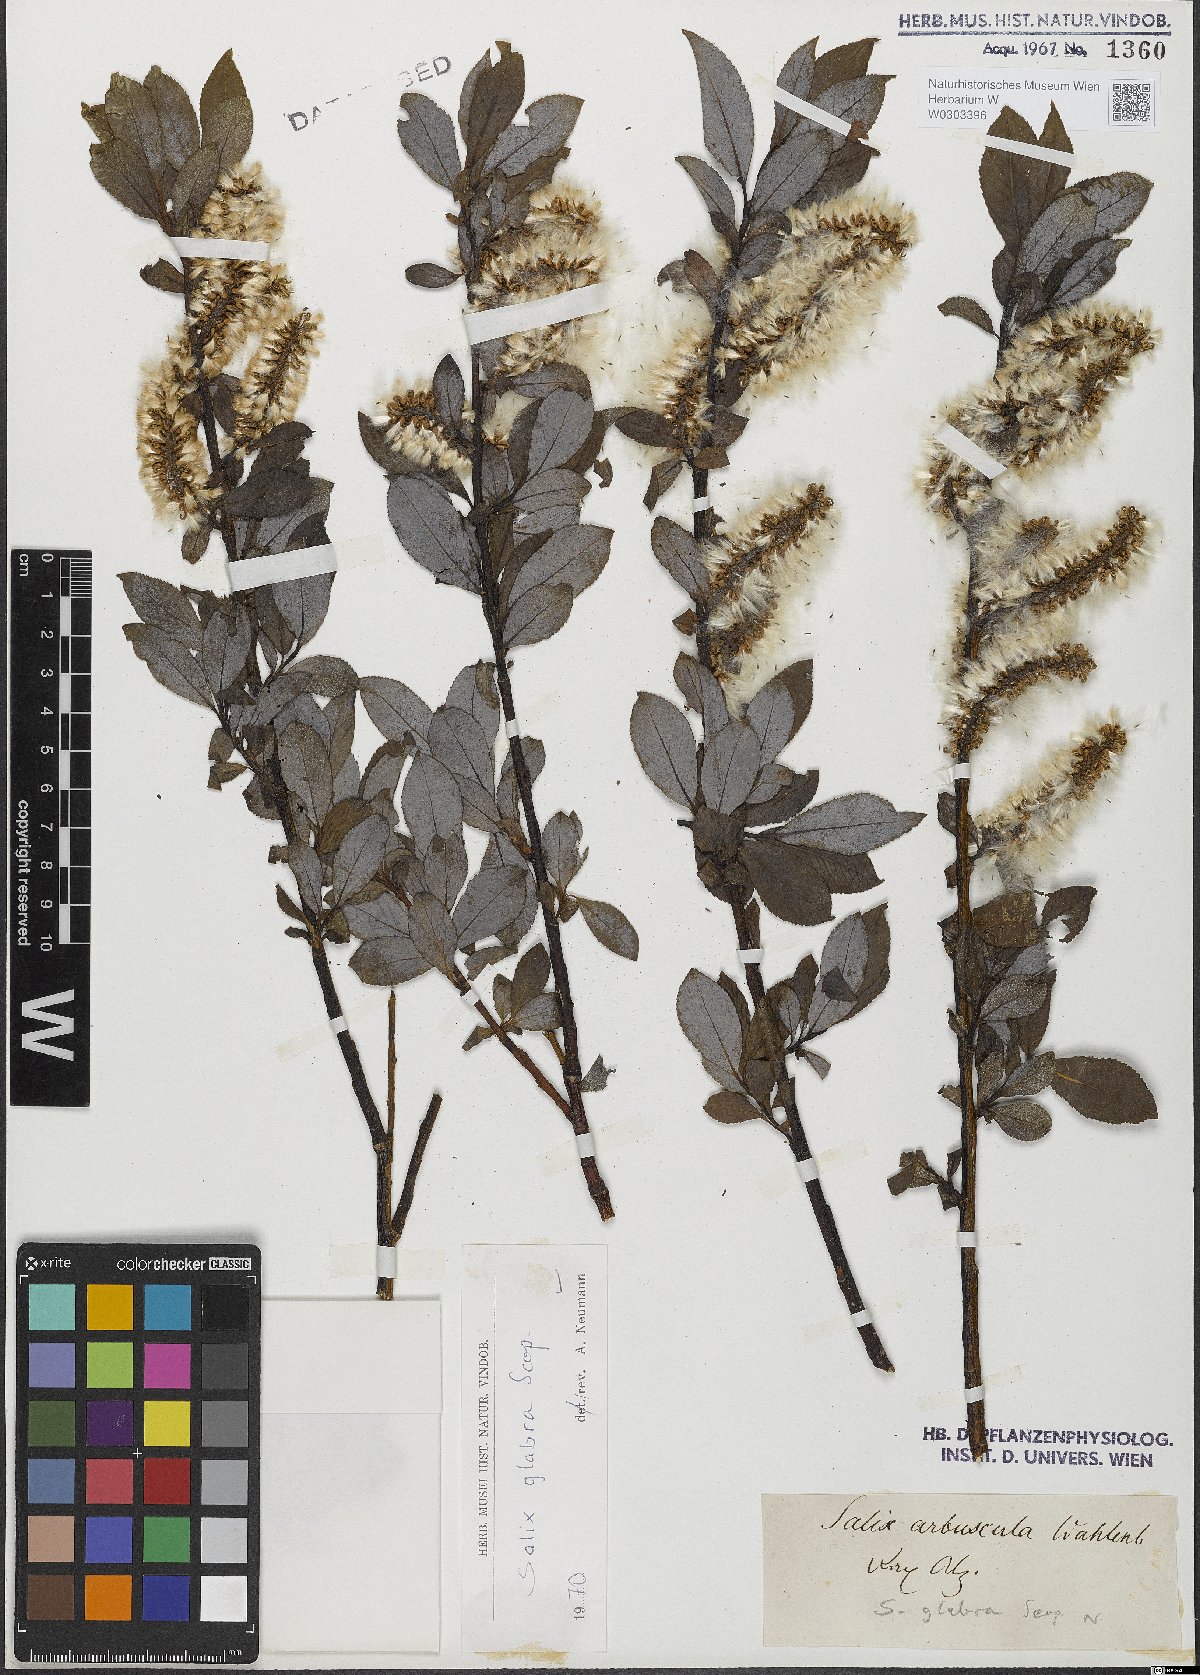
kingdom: Plantae
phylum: Tracheophyta
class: Magnoliopsida
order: Malpighiales
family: Salicaceae
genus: Salix
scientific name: Salix glabra
